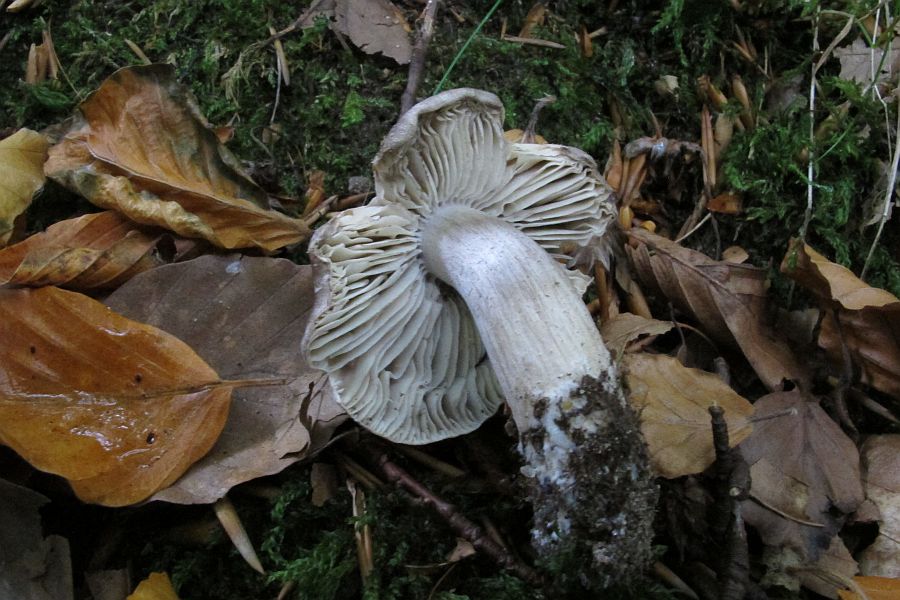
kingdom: Fungi
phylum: Basidiomycota
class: Agaricomycetes
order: Agaricales
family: Tricholomataceae
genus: Tricholoma
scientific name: Tricholoma sciodes
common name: stribet ridderhat
